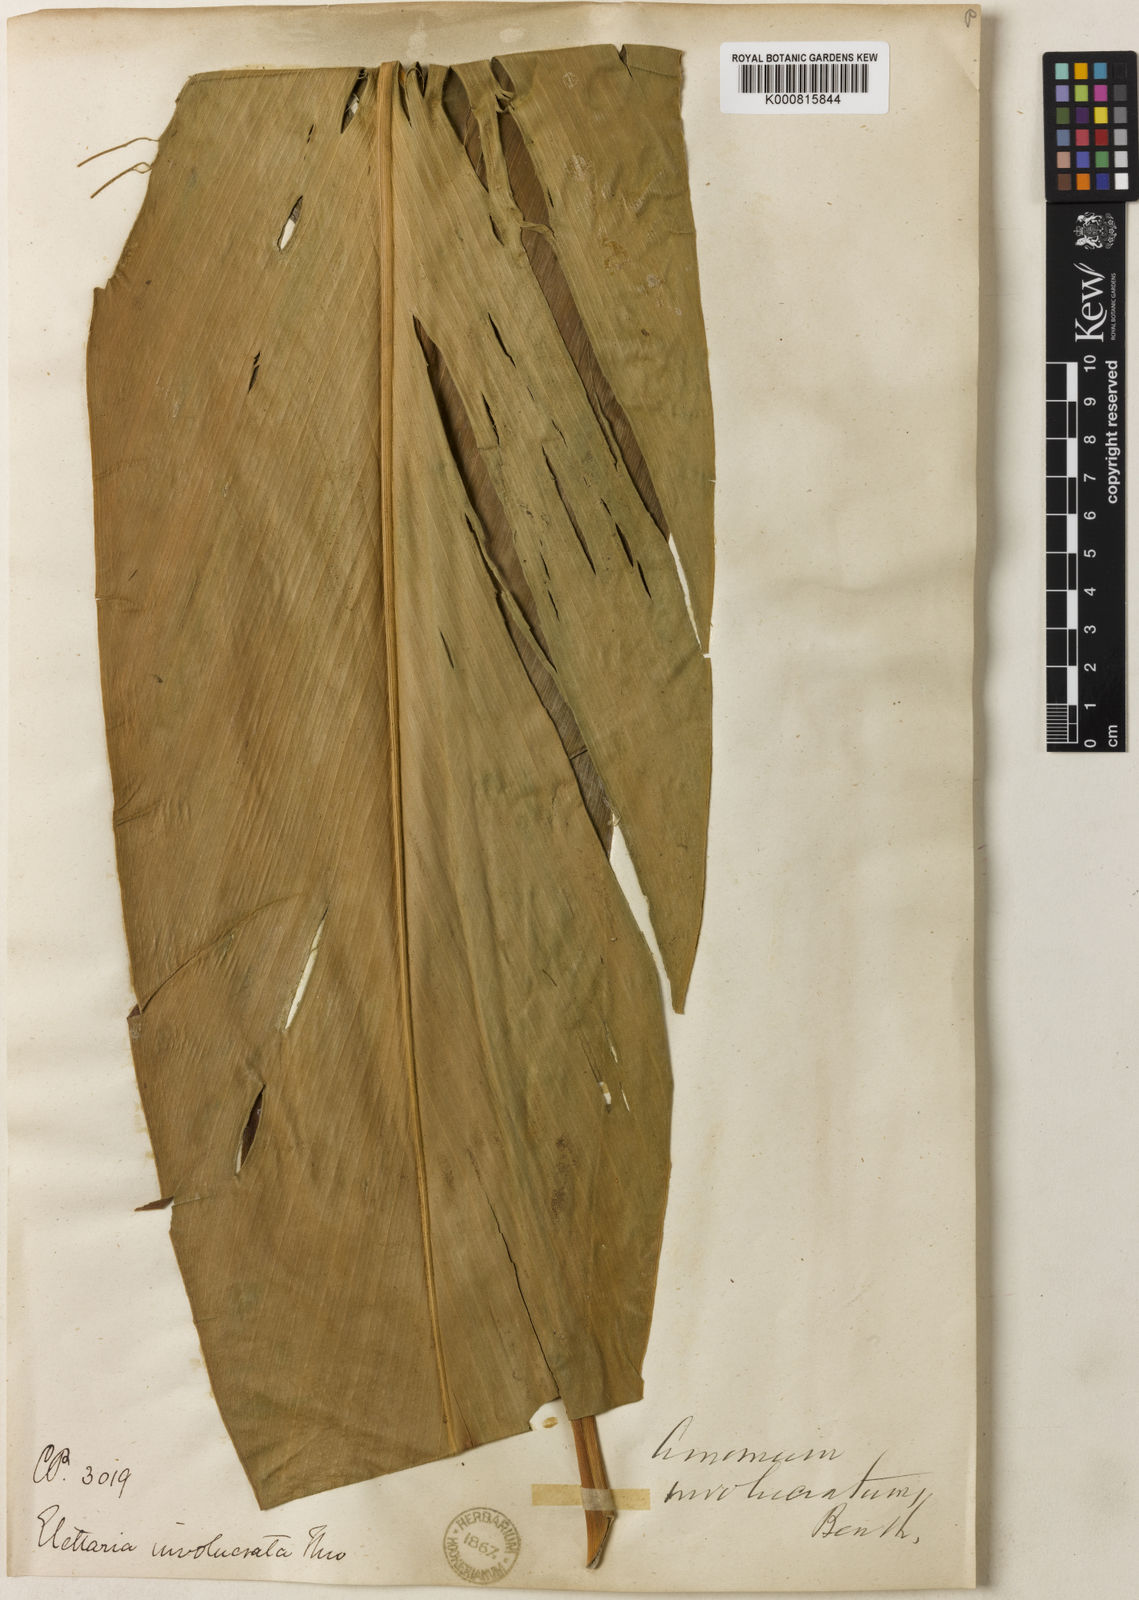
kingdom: Plantae
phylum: Tracheophyta
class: Liliopsida
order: Zingiberales
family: Zingiberaceae
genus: Alpinia
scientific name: Alpinia fax
